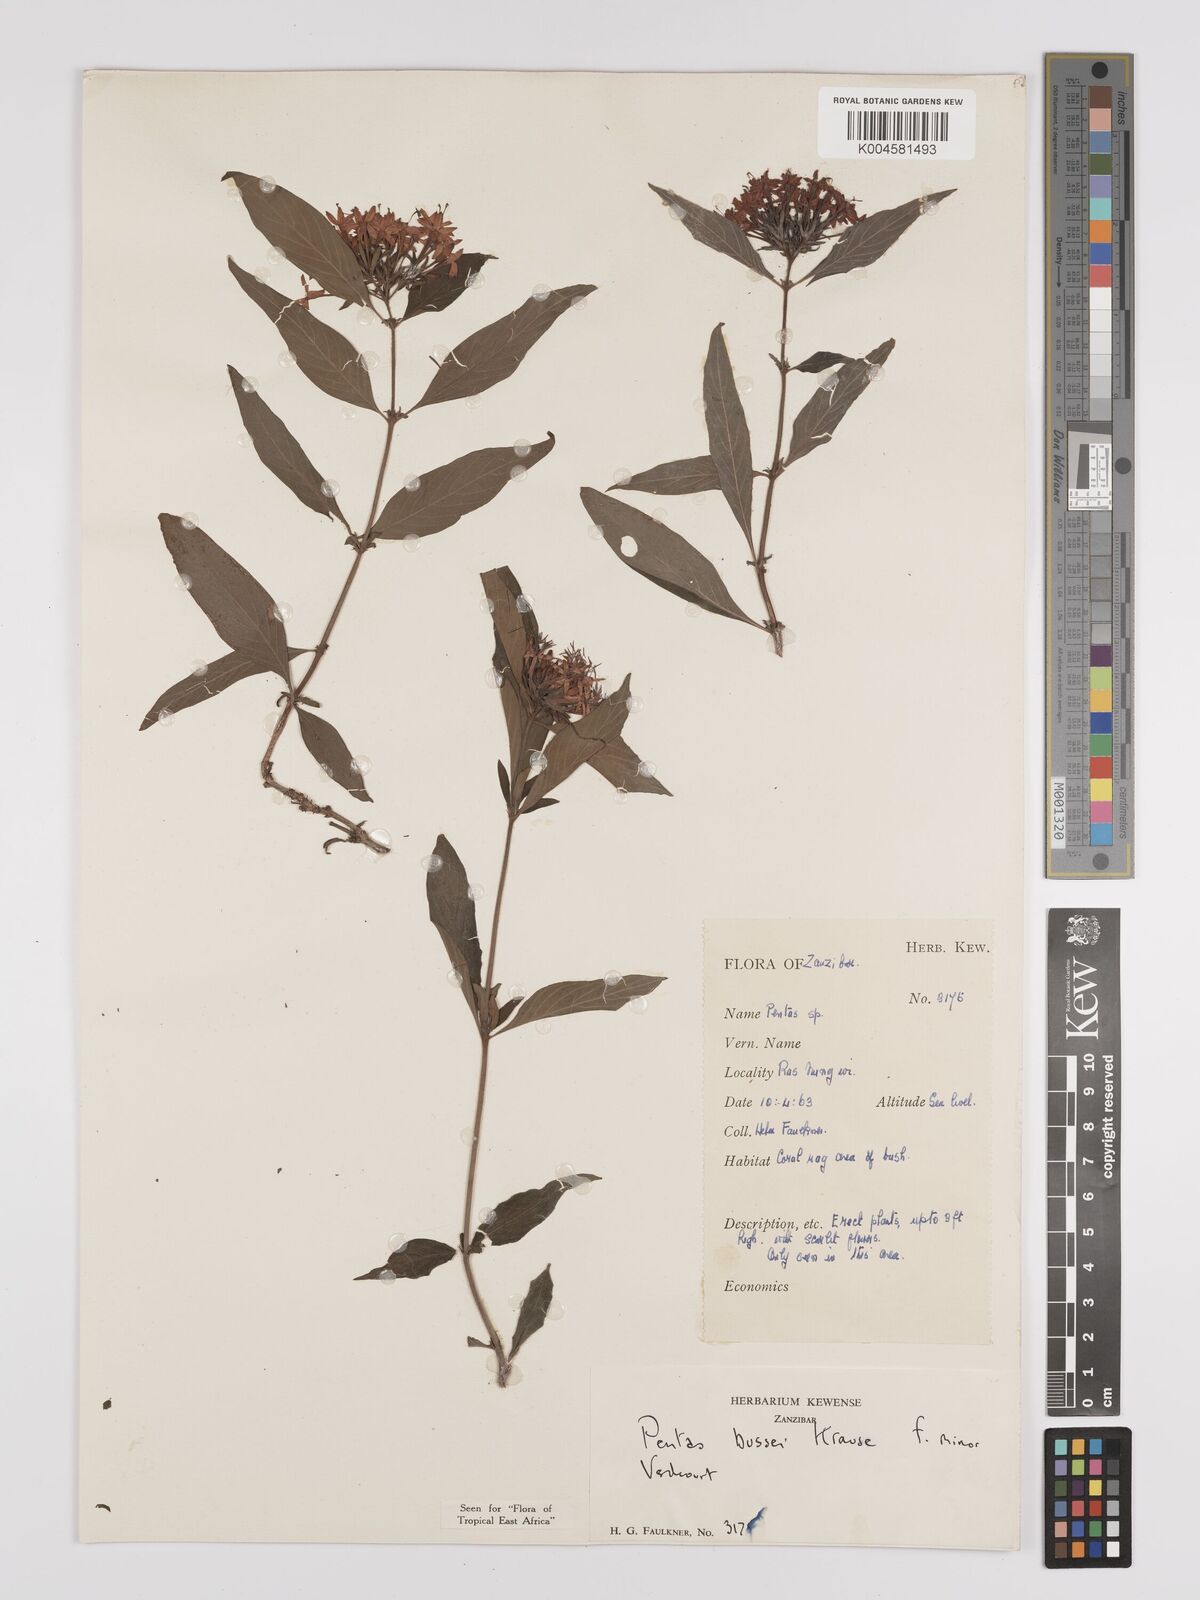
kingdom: Plantae
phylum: Tracheophyta
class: Magnoliopsida
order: Gentianales
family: Rubiaceae
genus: Rhodopentas
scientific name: Rhodopentas bussei
